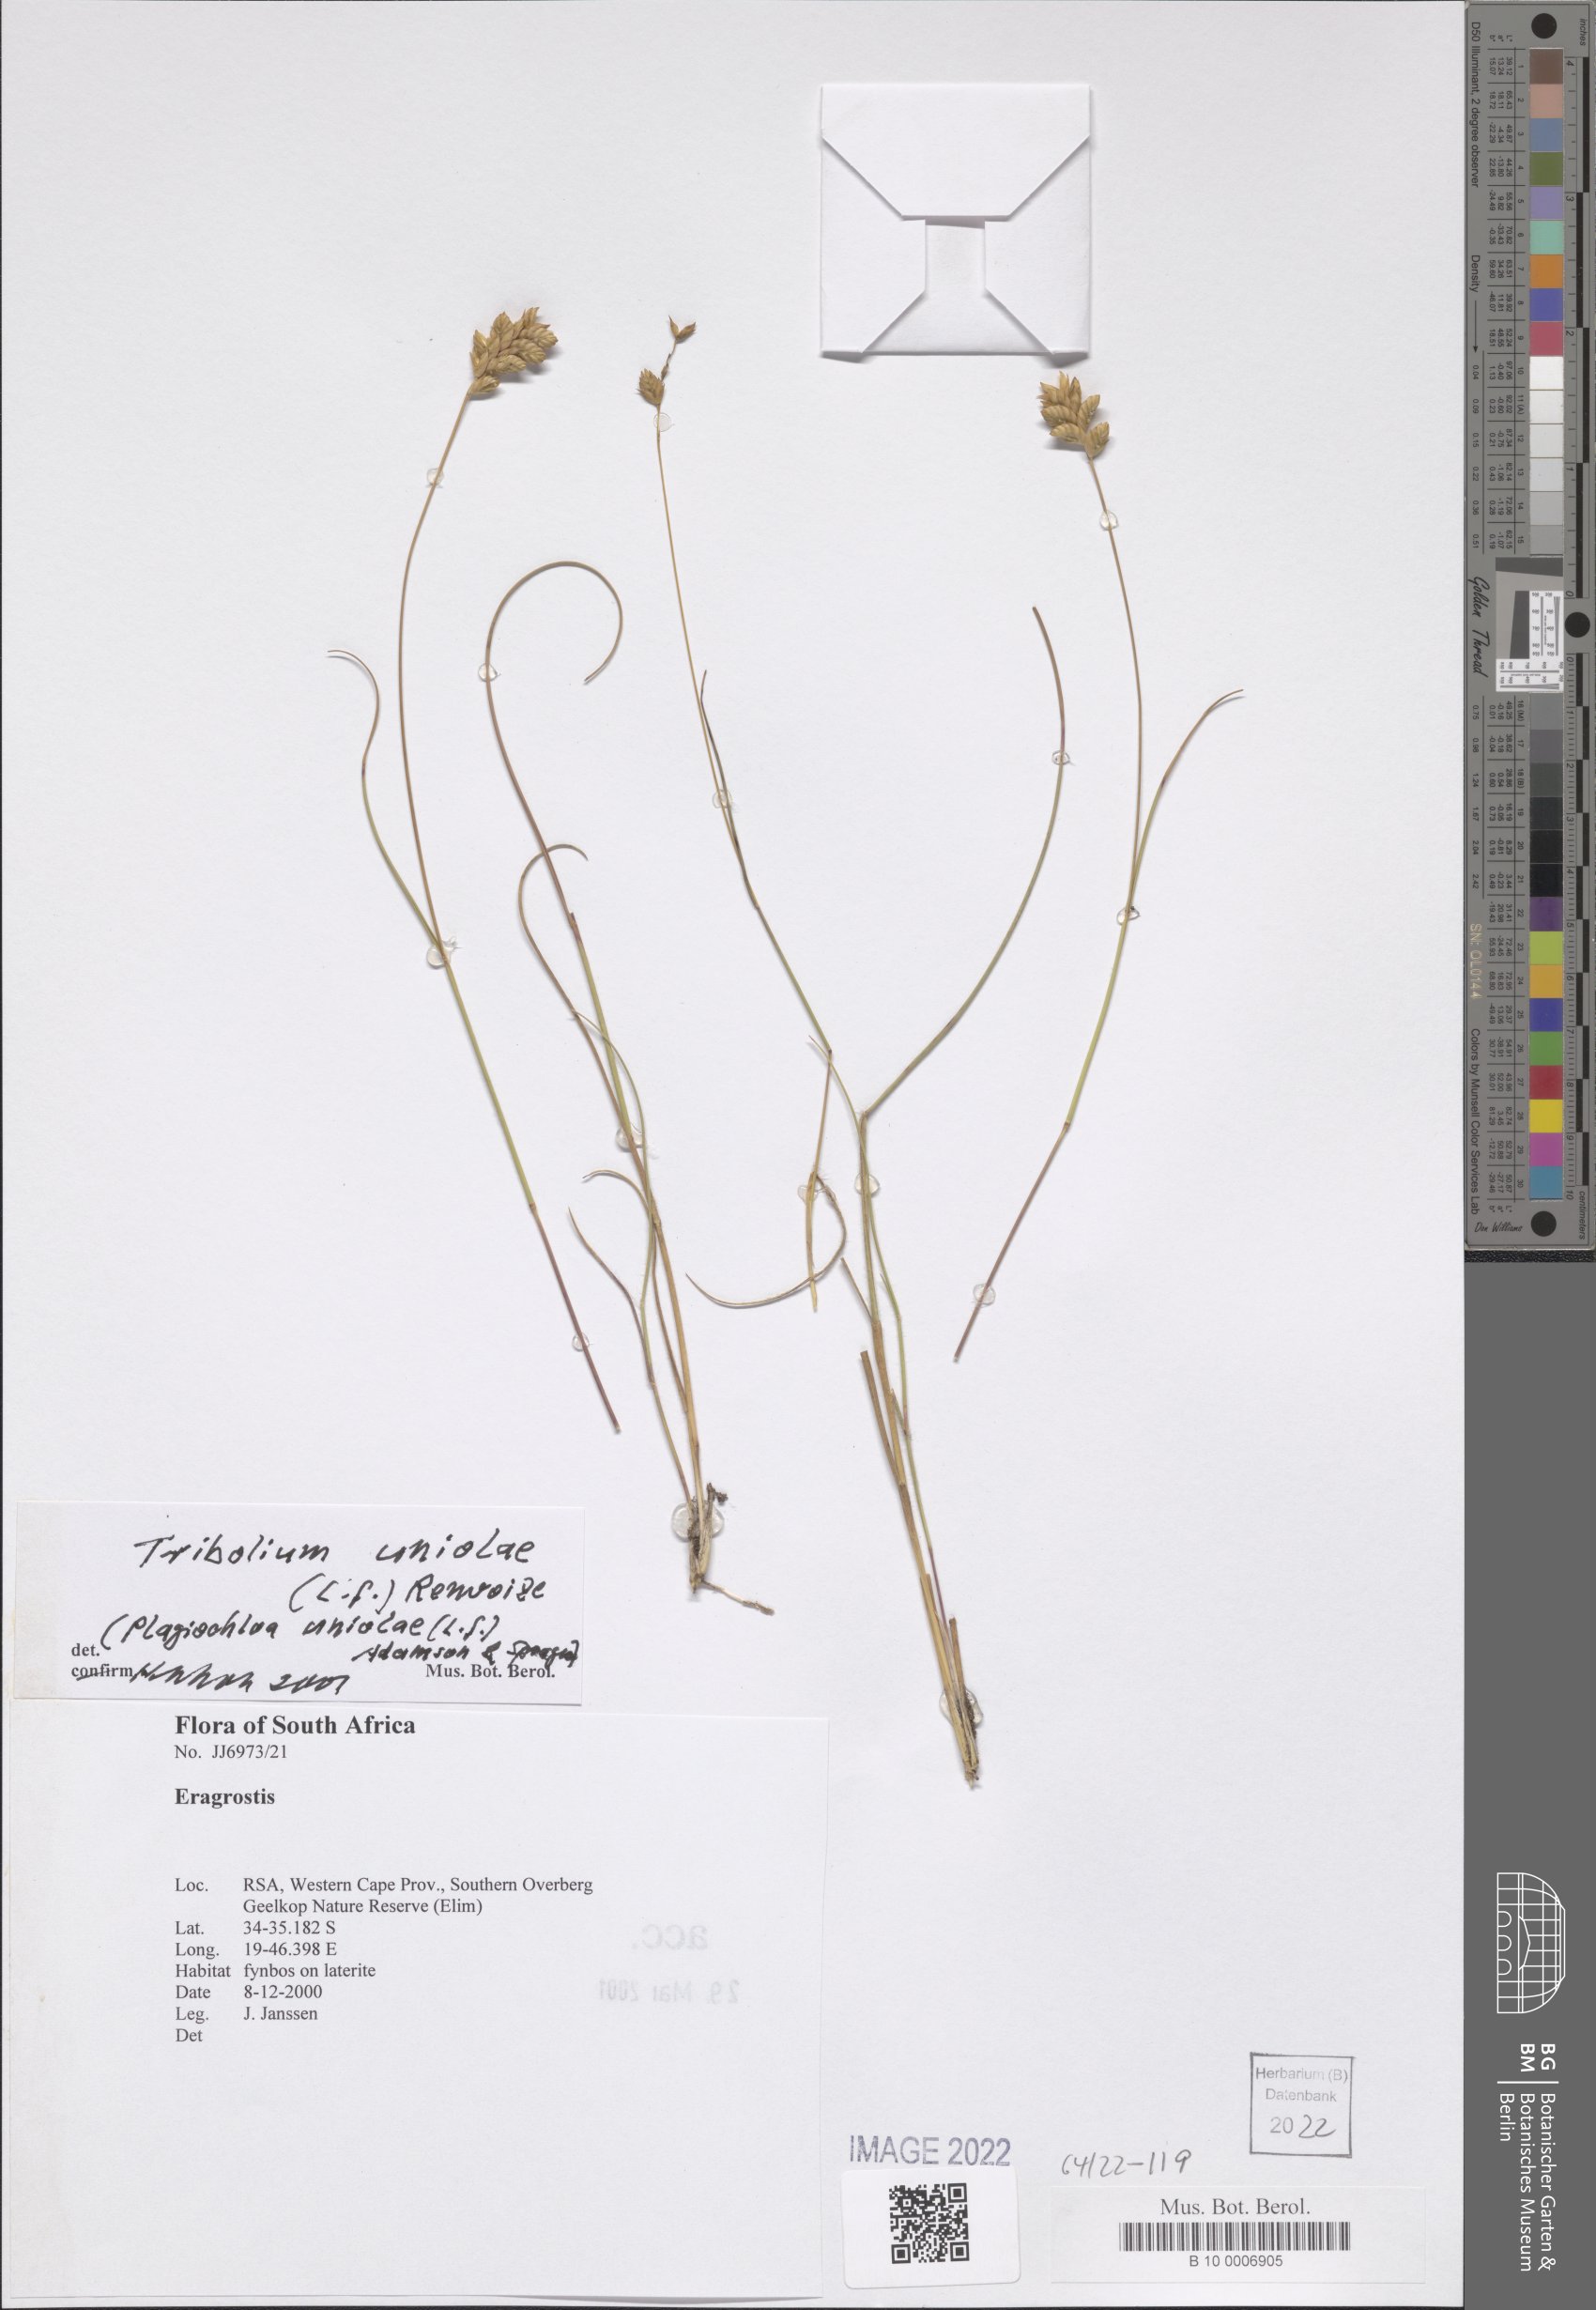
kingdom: Plantae
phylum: Tracheophyta
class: Liliopsida
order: Poales
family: Poaceae
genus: Tribolium
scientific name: Tribolium uniolae
